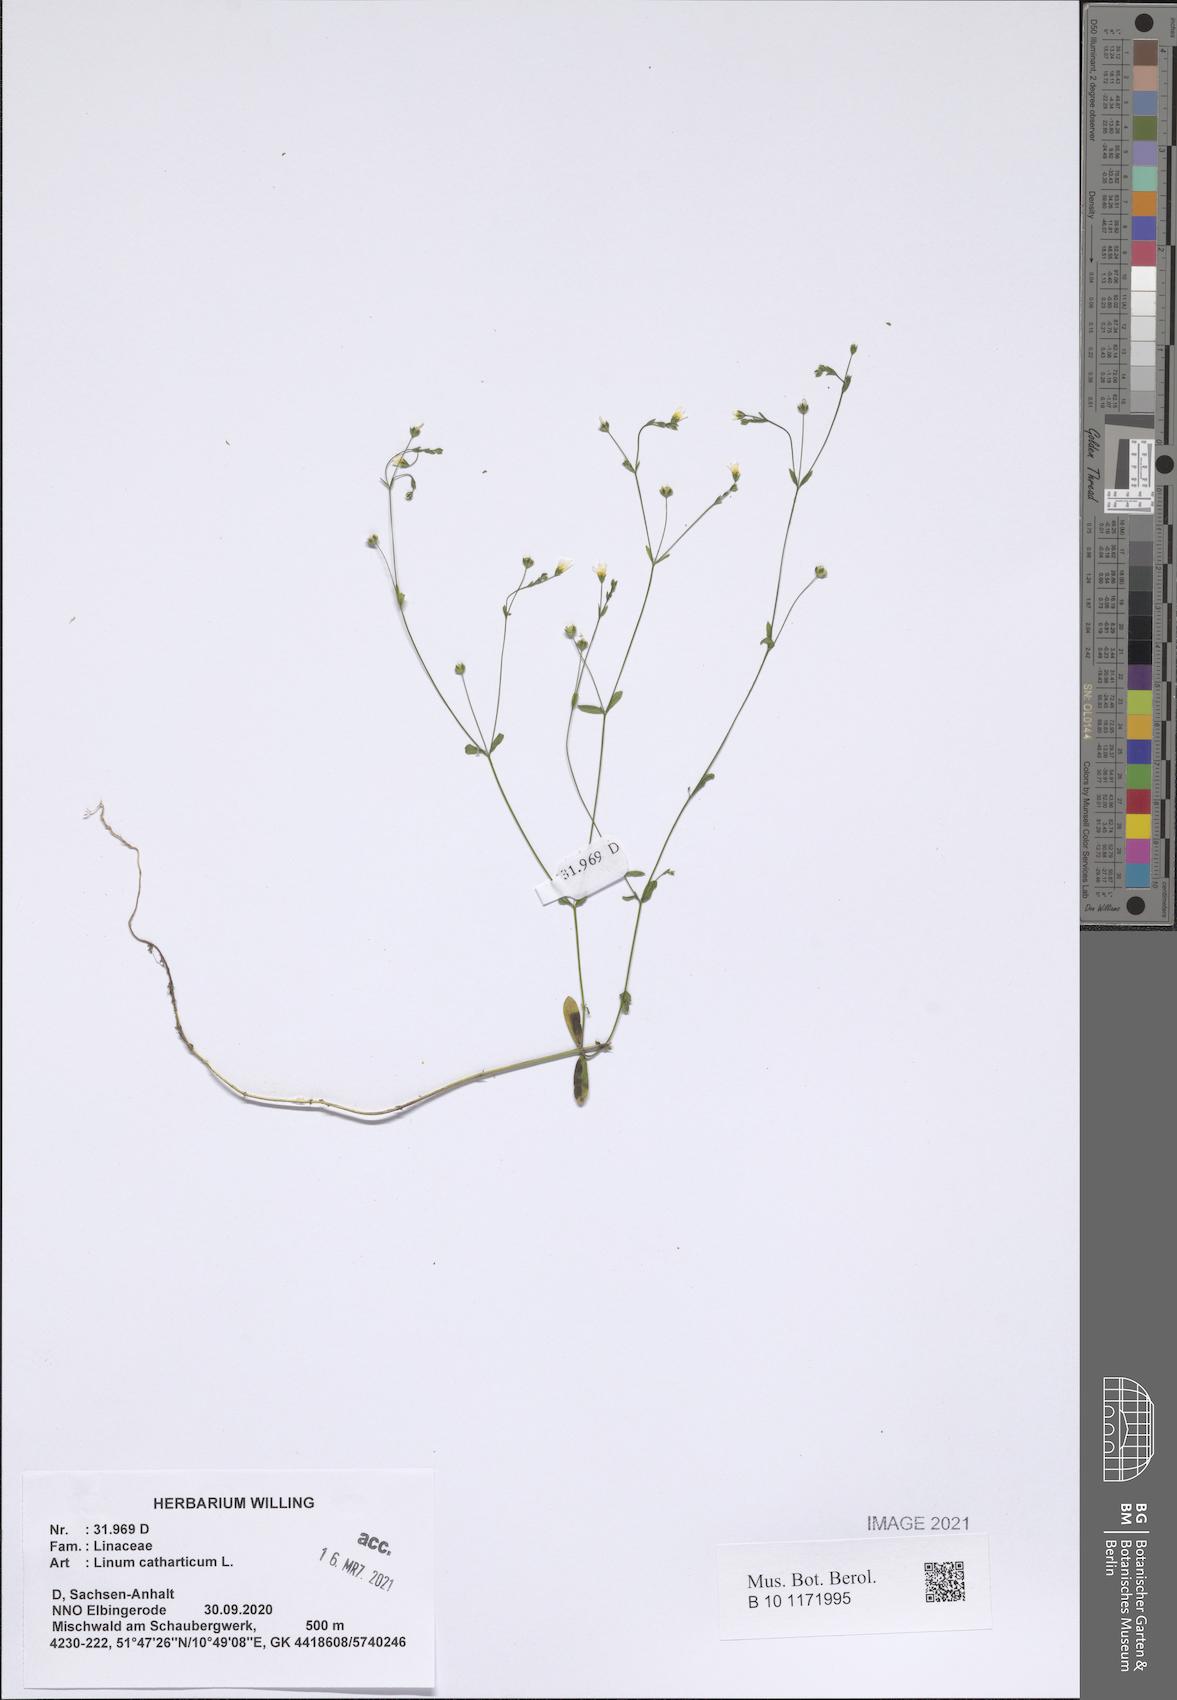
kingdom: Plantae
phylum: Tracheophyta
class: Magnoliopsida
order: Malpighiales
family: Linaceae
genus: Linum
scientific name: Linum catharticum
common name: Fairy flax
